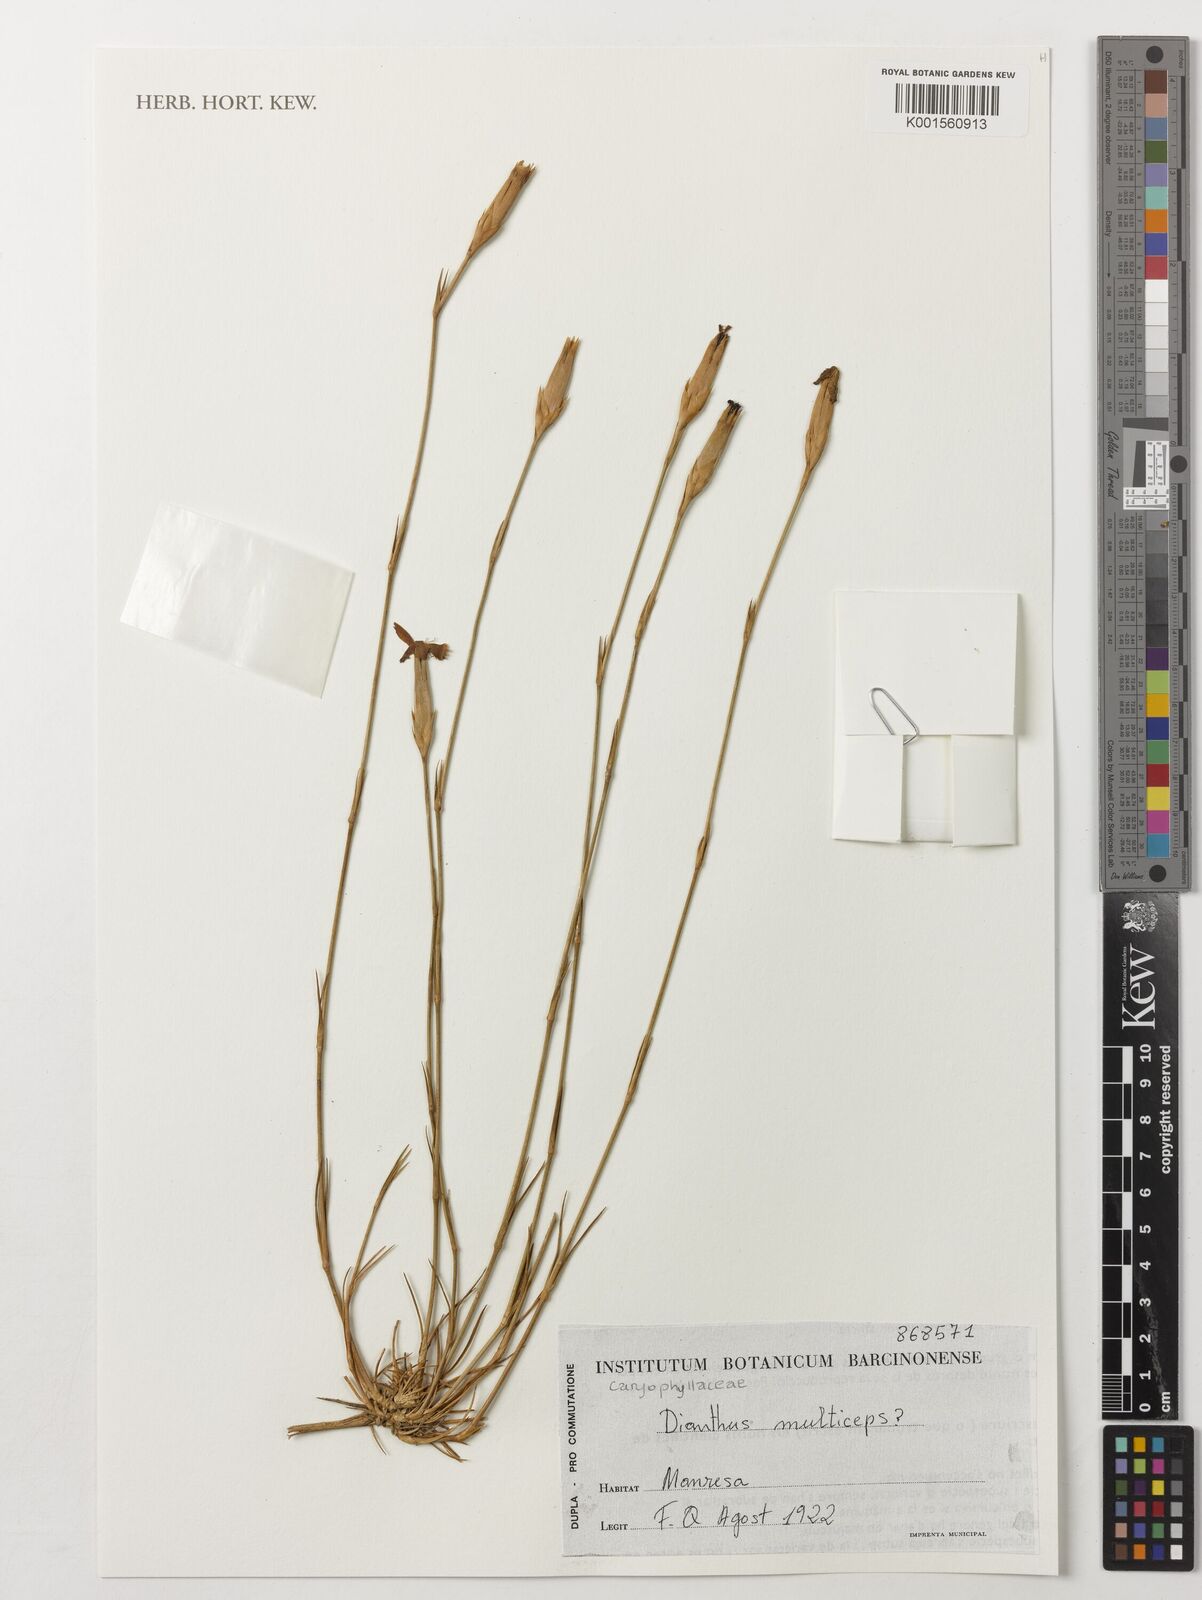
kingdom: Plantae
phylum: Tracheophyta
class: Magnoliopsida
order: Caryophyllales
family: Caryophyllaceae
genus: Dianthus
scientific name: Dianthus multiceps
